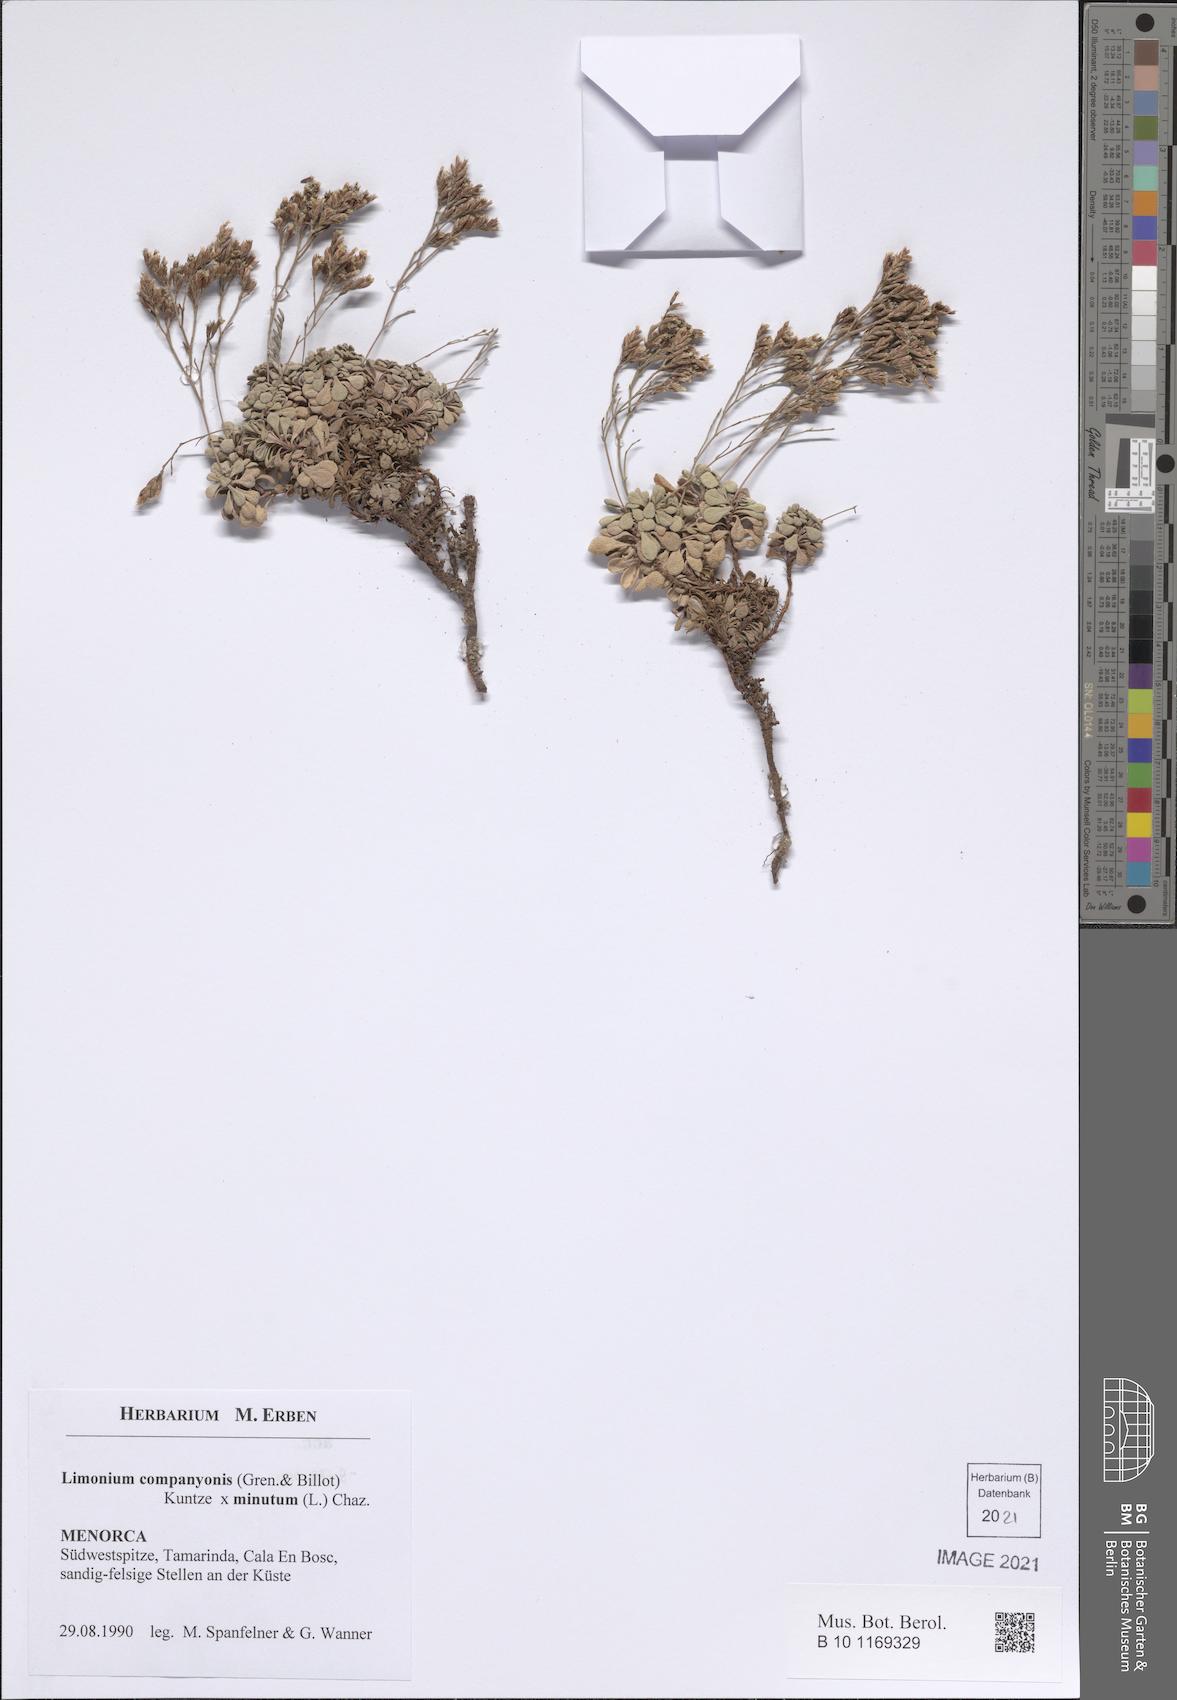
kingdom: Plantae
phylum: Tracheophyta
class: Magnoliopsida
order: Caryophyllales
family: Plumbaginaceae
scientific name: Plumbaginaceae
